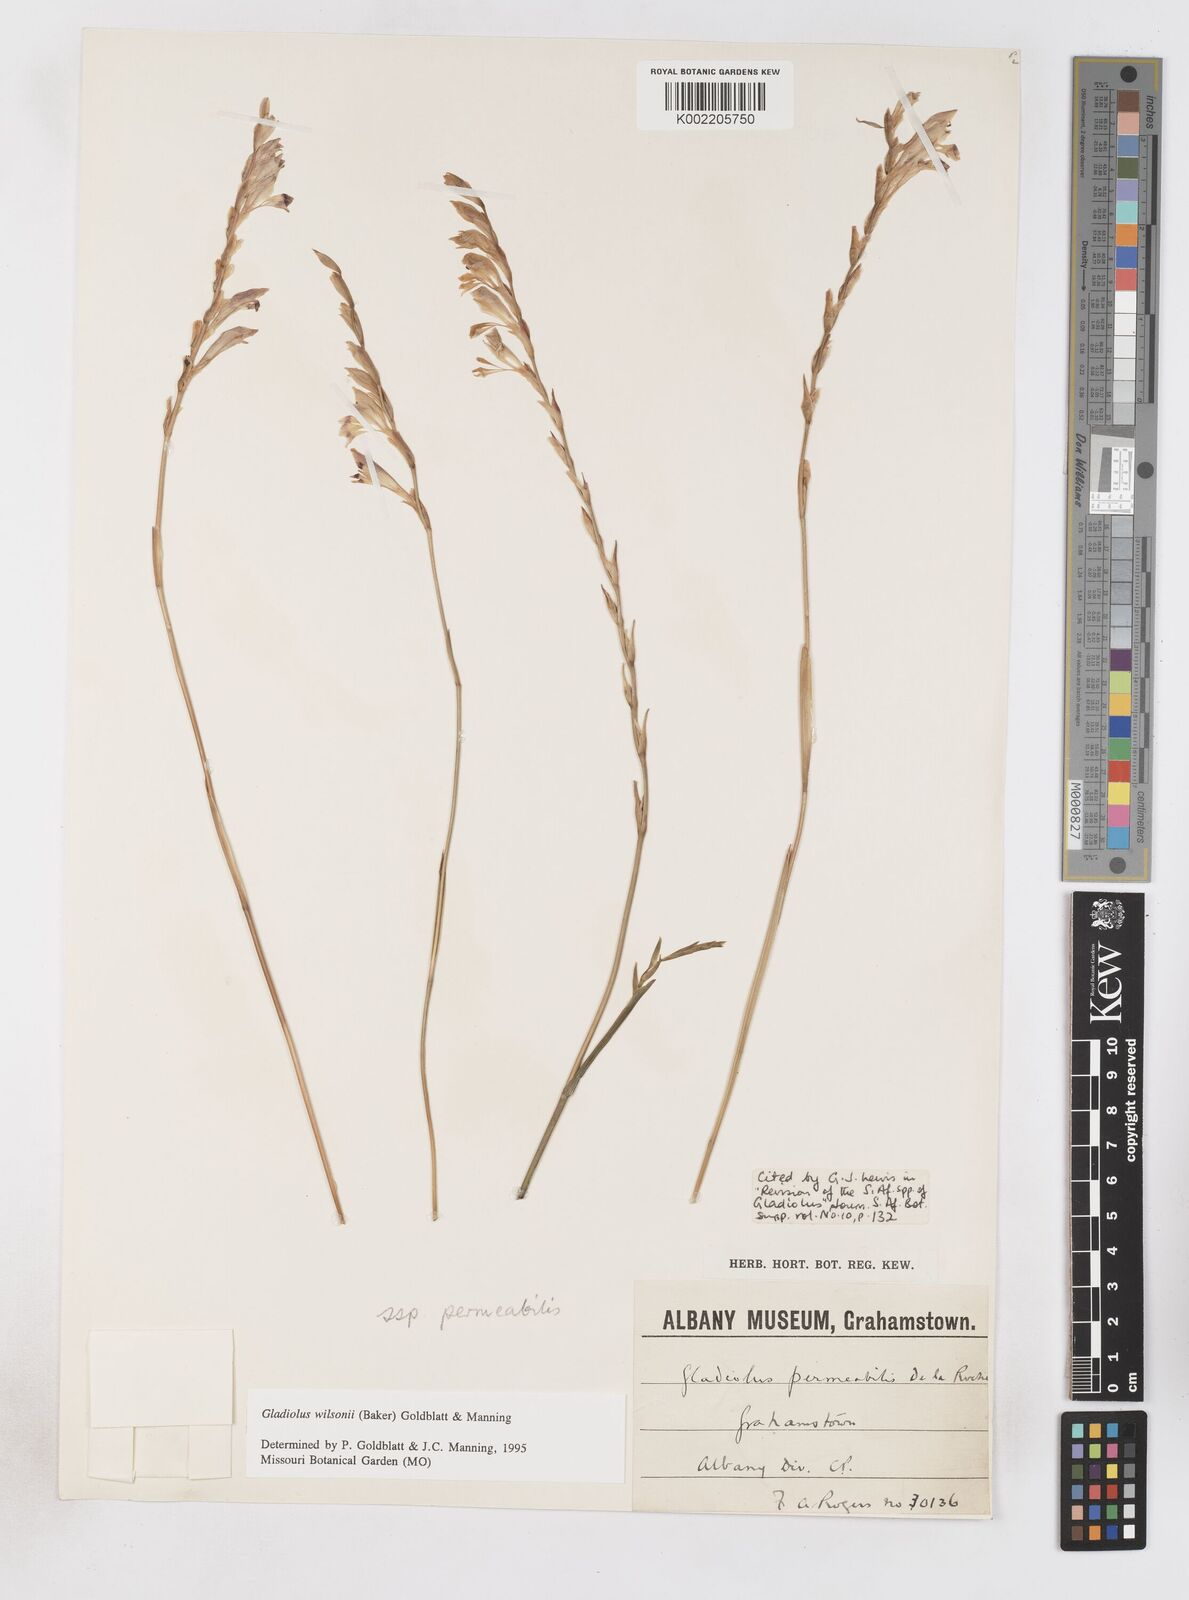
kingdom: Plantae
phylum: Tracheophyta
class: Liliopsida
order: Asparagales
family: Iridaceae
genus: Gladiolus
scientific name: Gladiolus wilsonii
